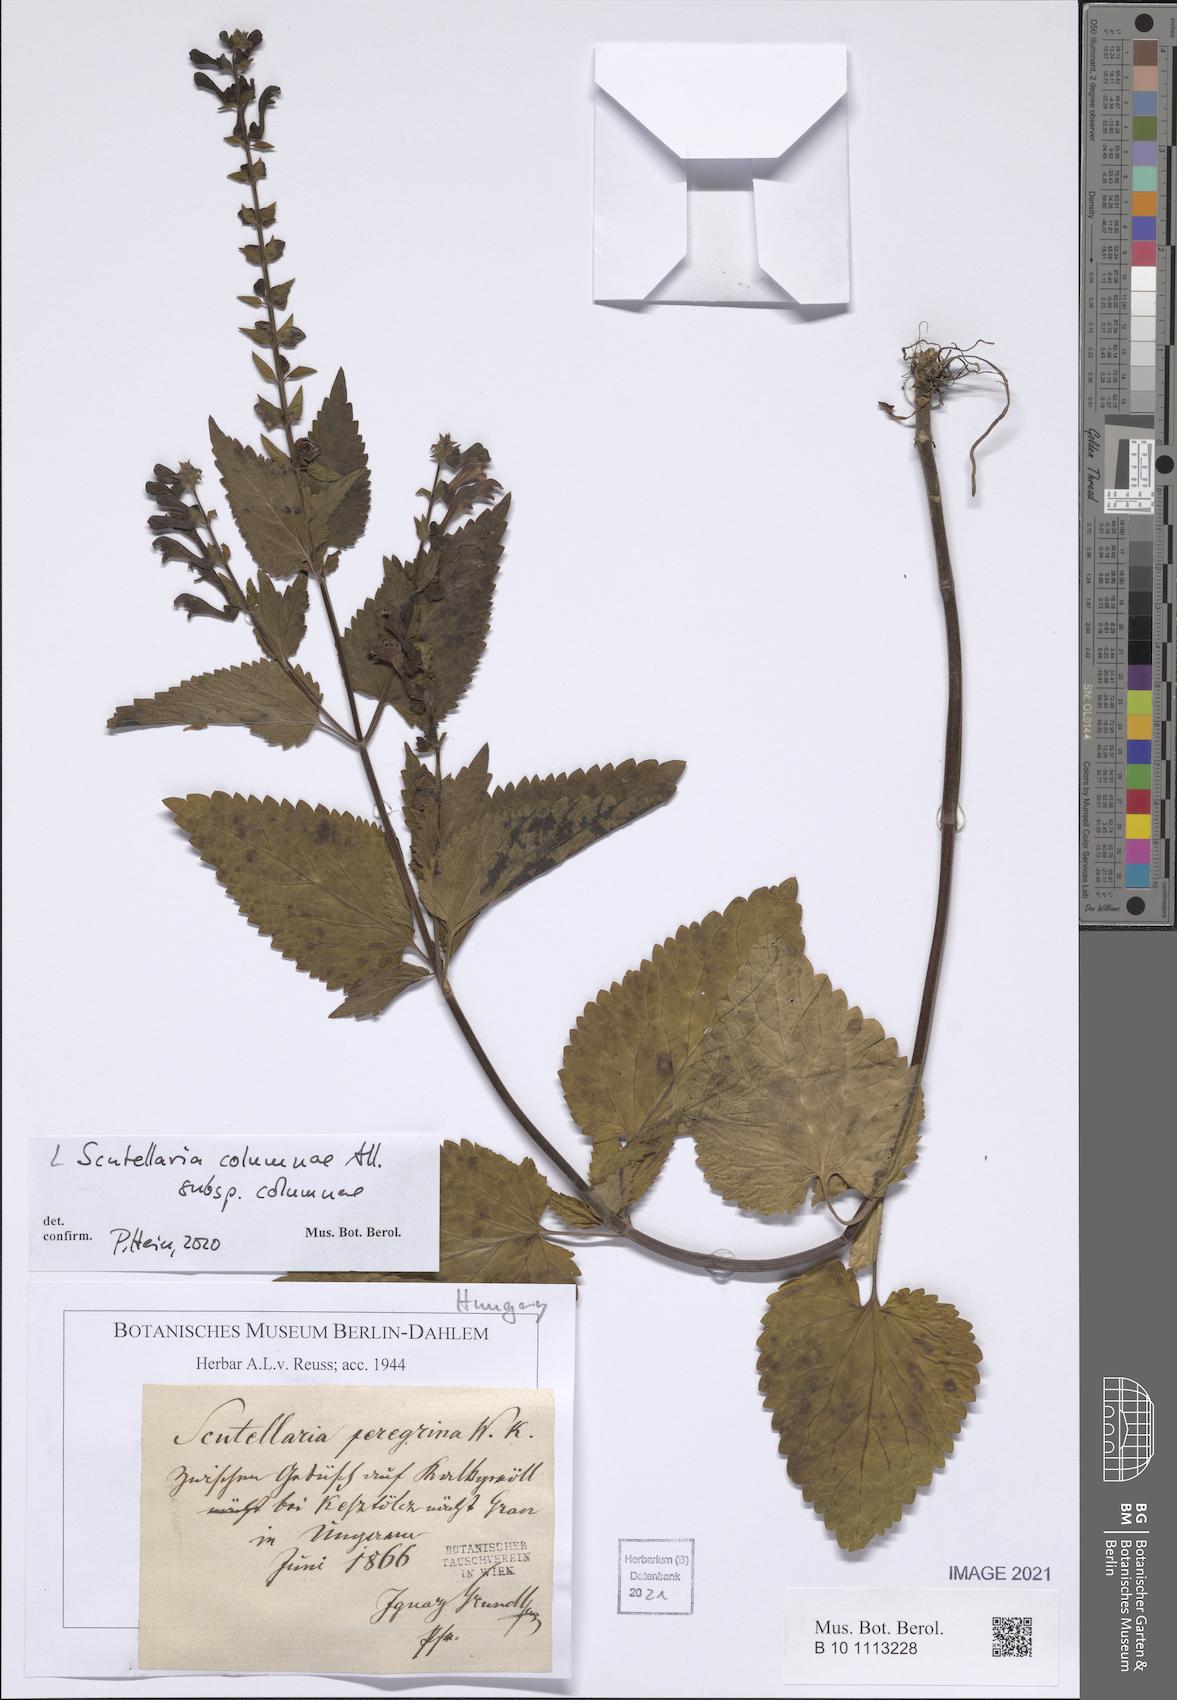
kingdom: Plantae
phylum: Tracheophyta
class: Magnoliopsida
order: Lamiales
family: Lamiaceae
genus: Scutellaria
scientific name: Scutellaria columnae
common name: Large skullcap
